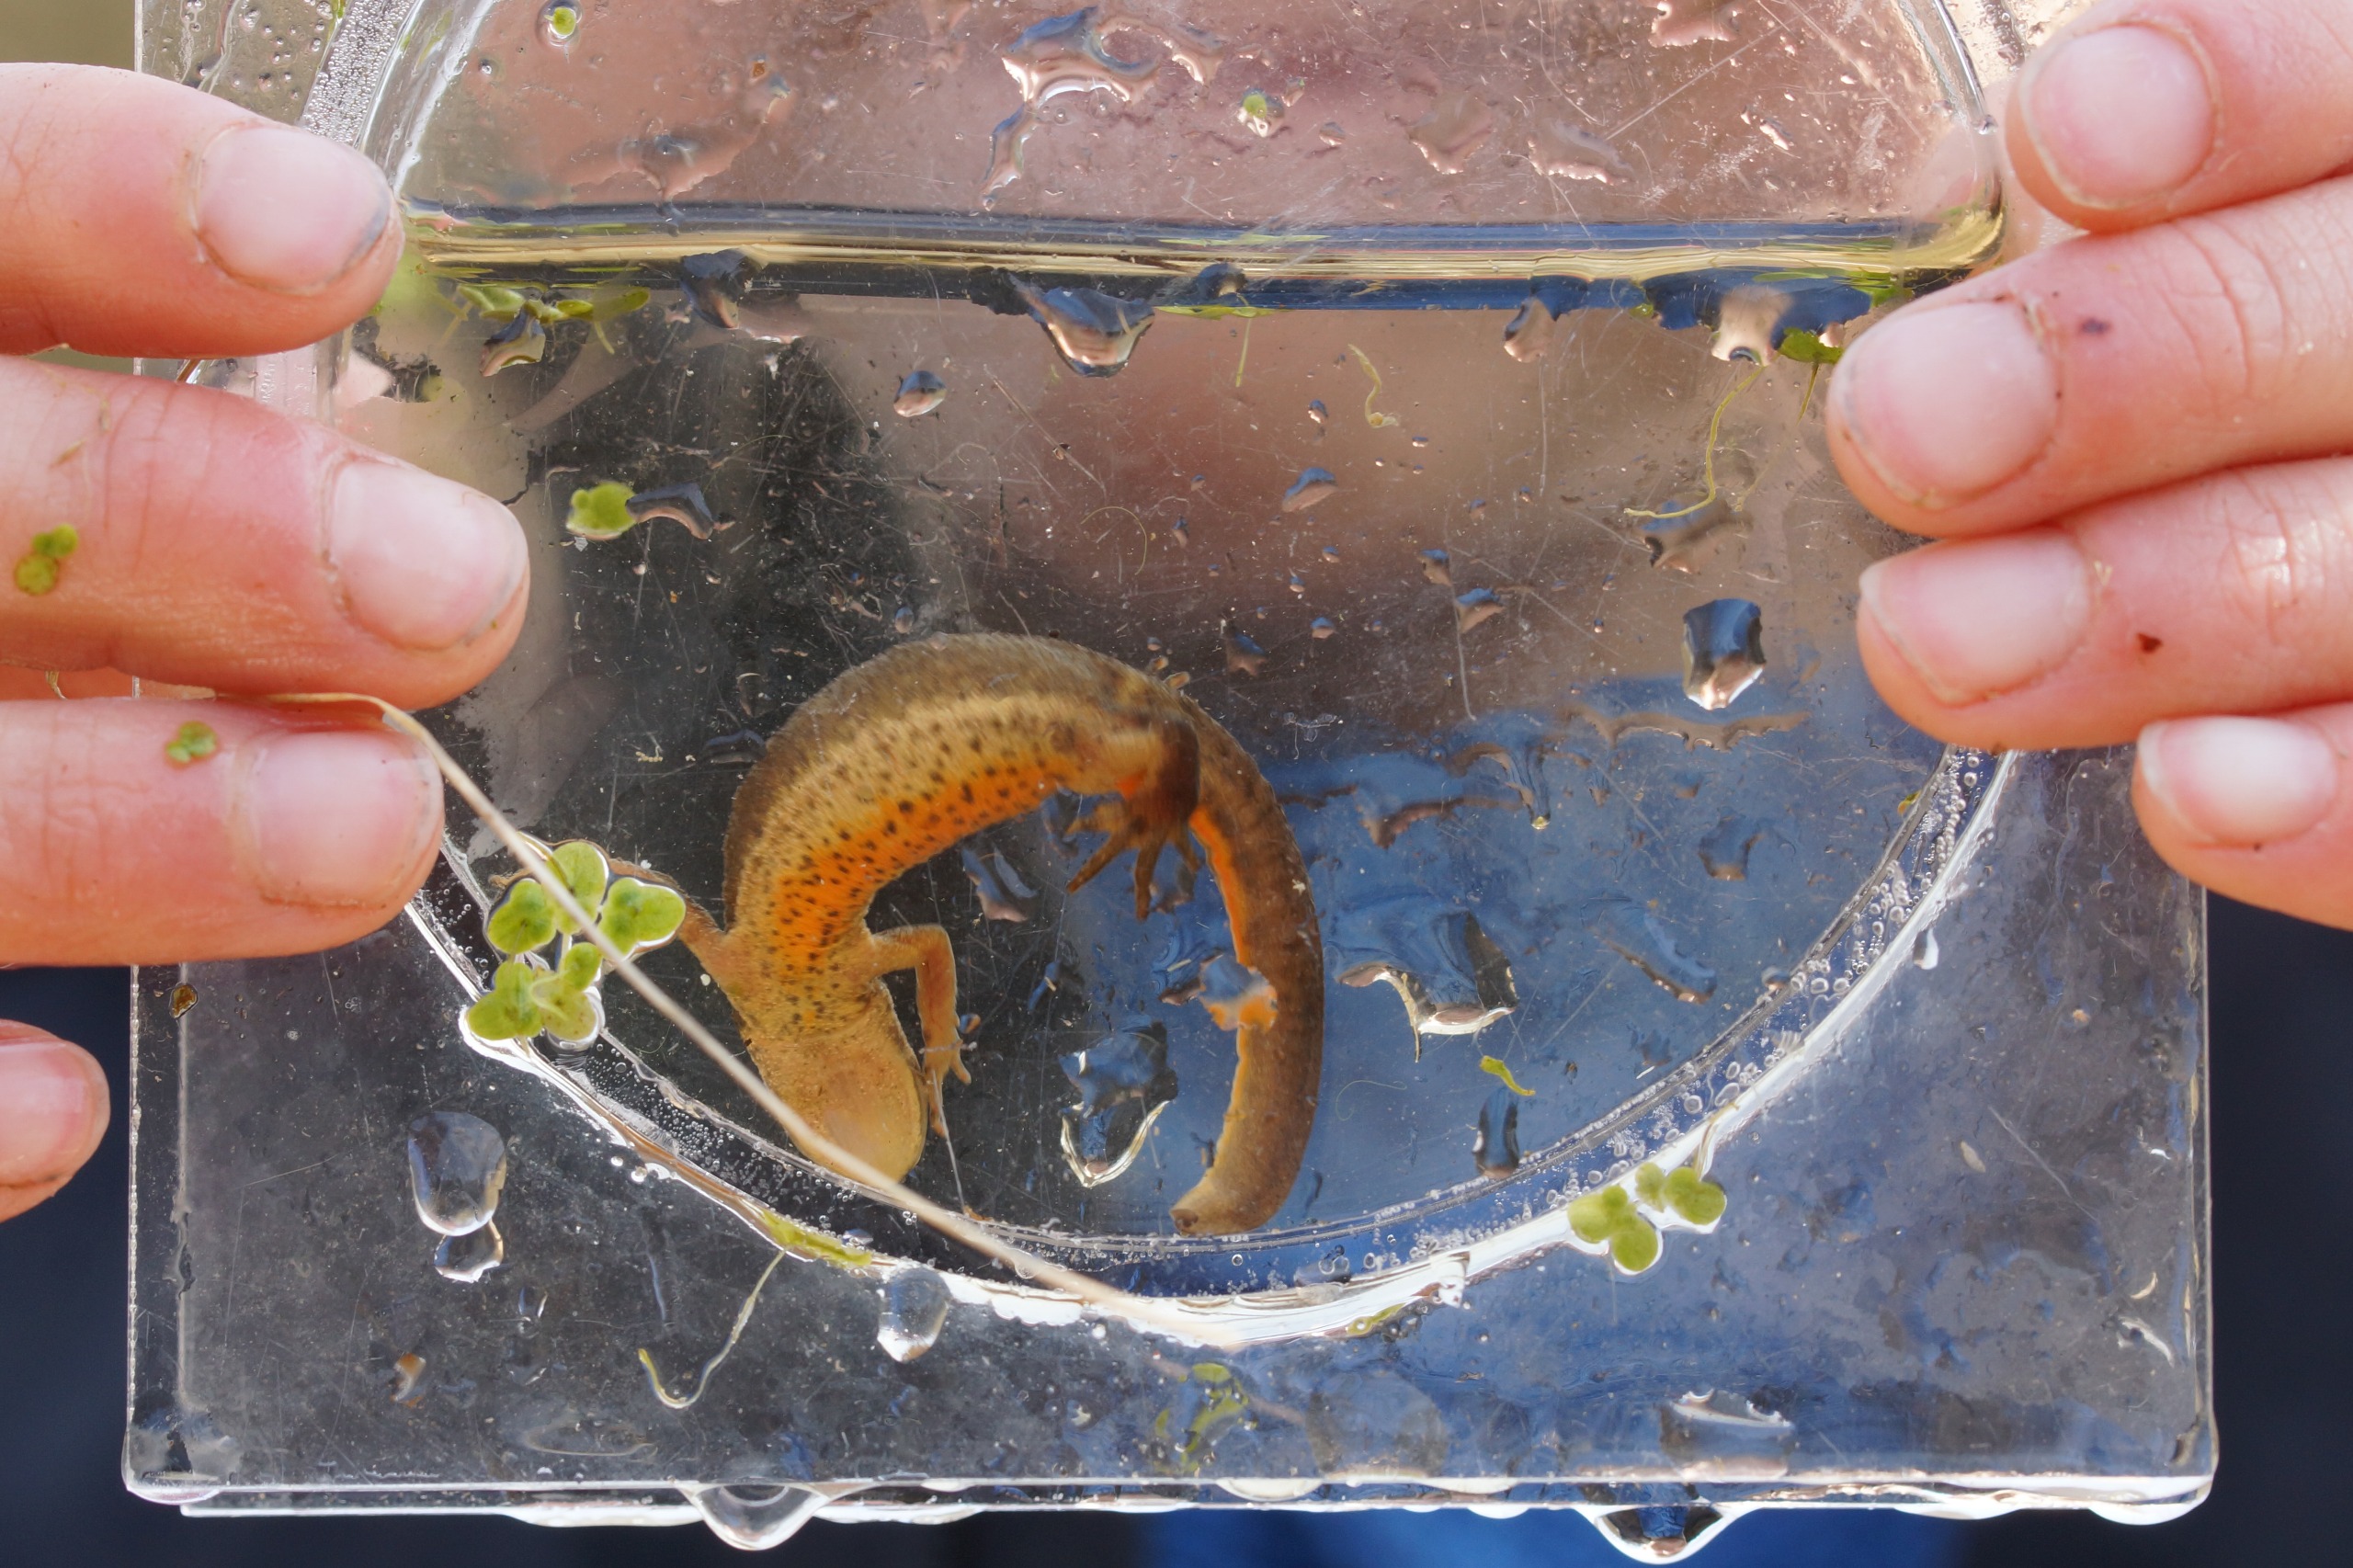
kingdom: Animalia
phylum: Chordata
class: Amphibia
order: Caudata
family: Salamandridae
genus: Lissotriton
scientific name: Lissotriton vulgaris
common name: Lille vandsalamander
